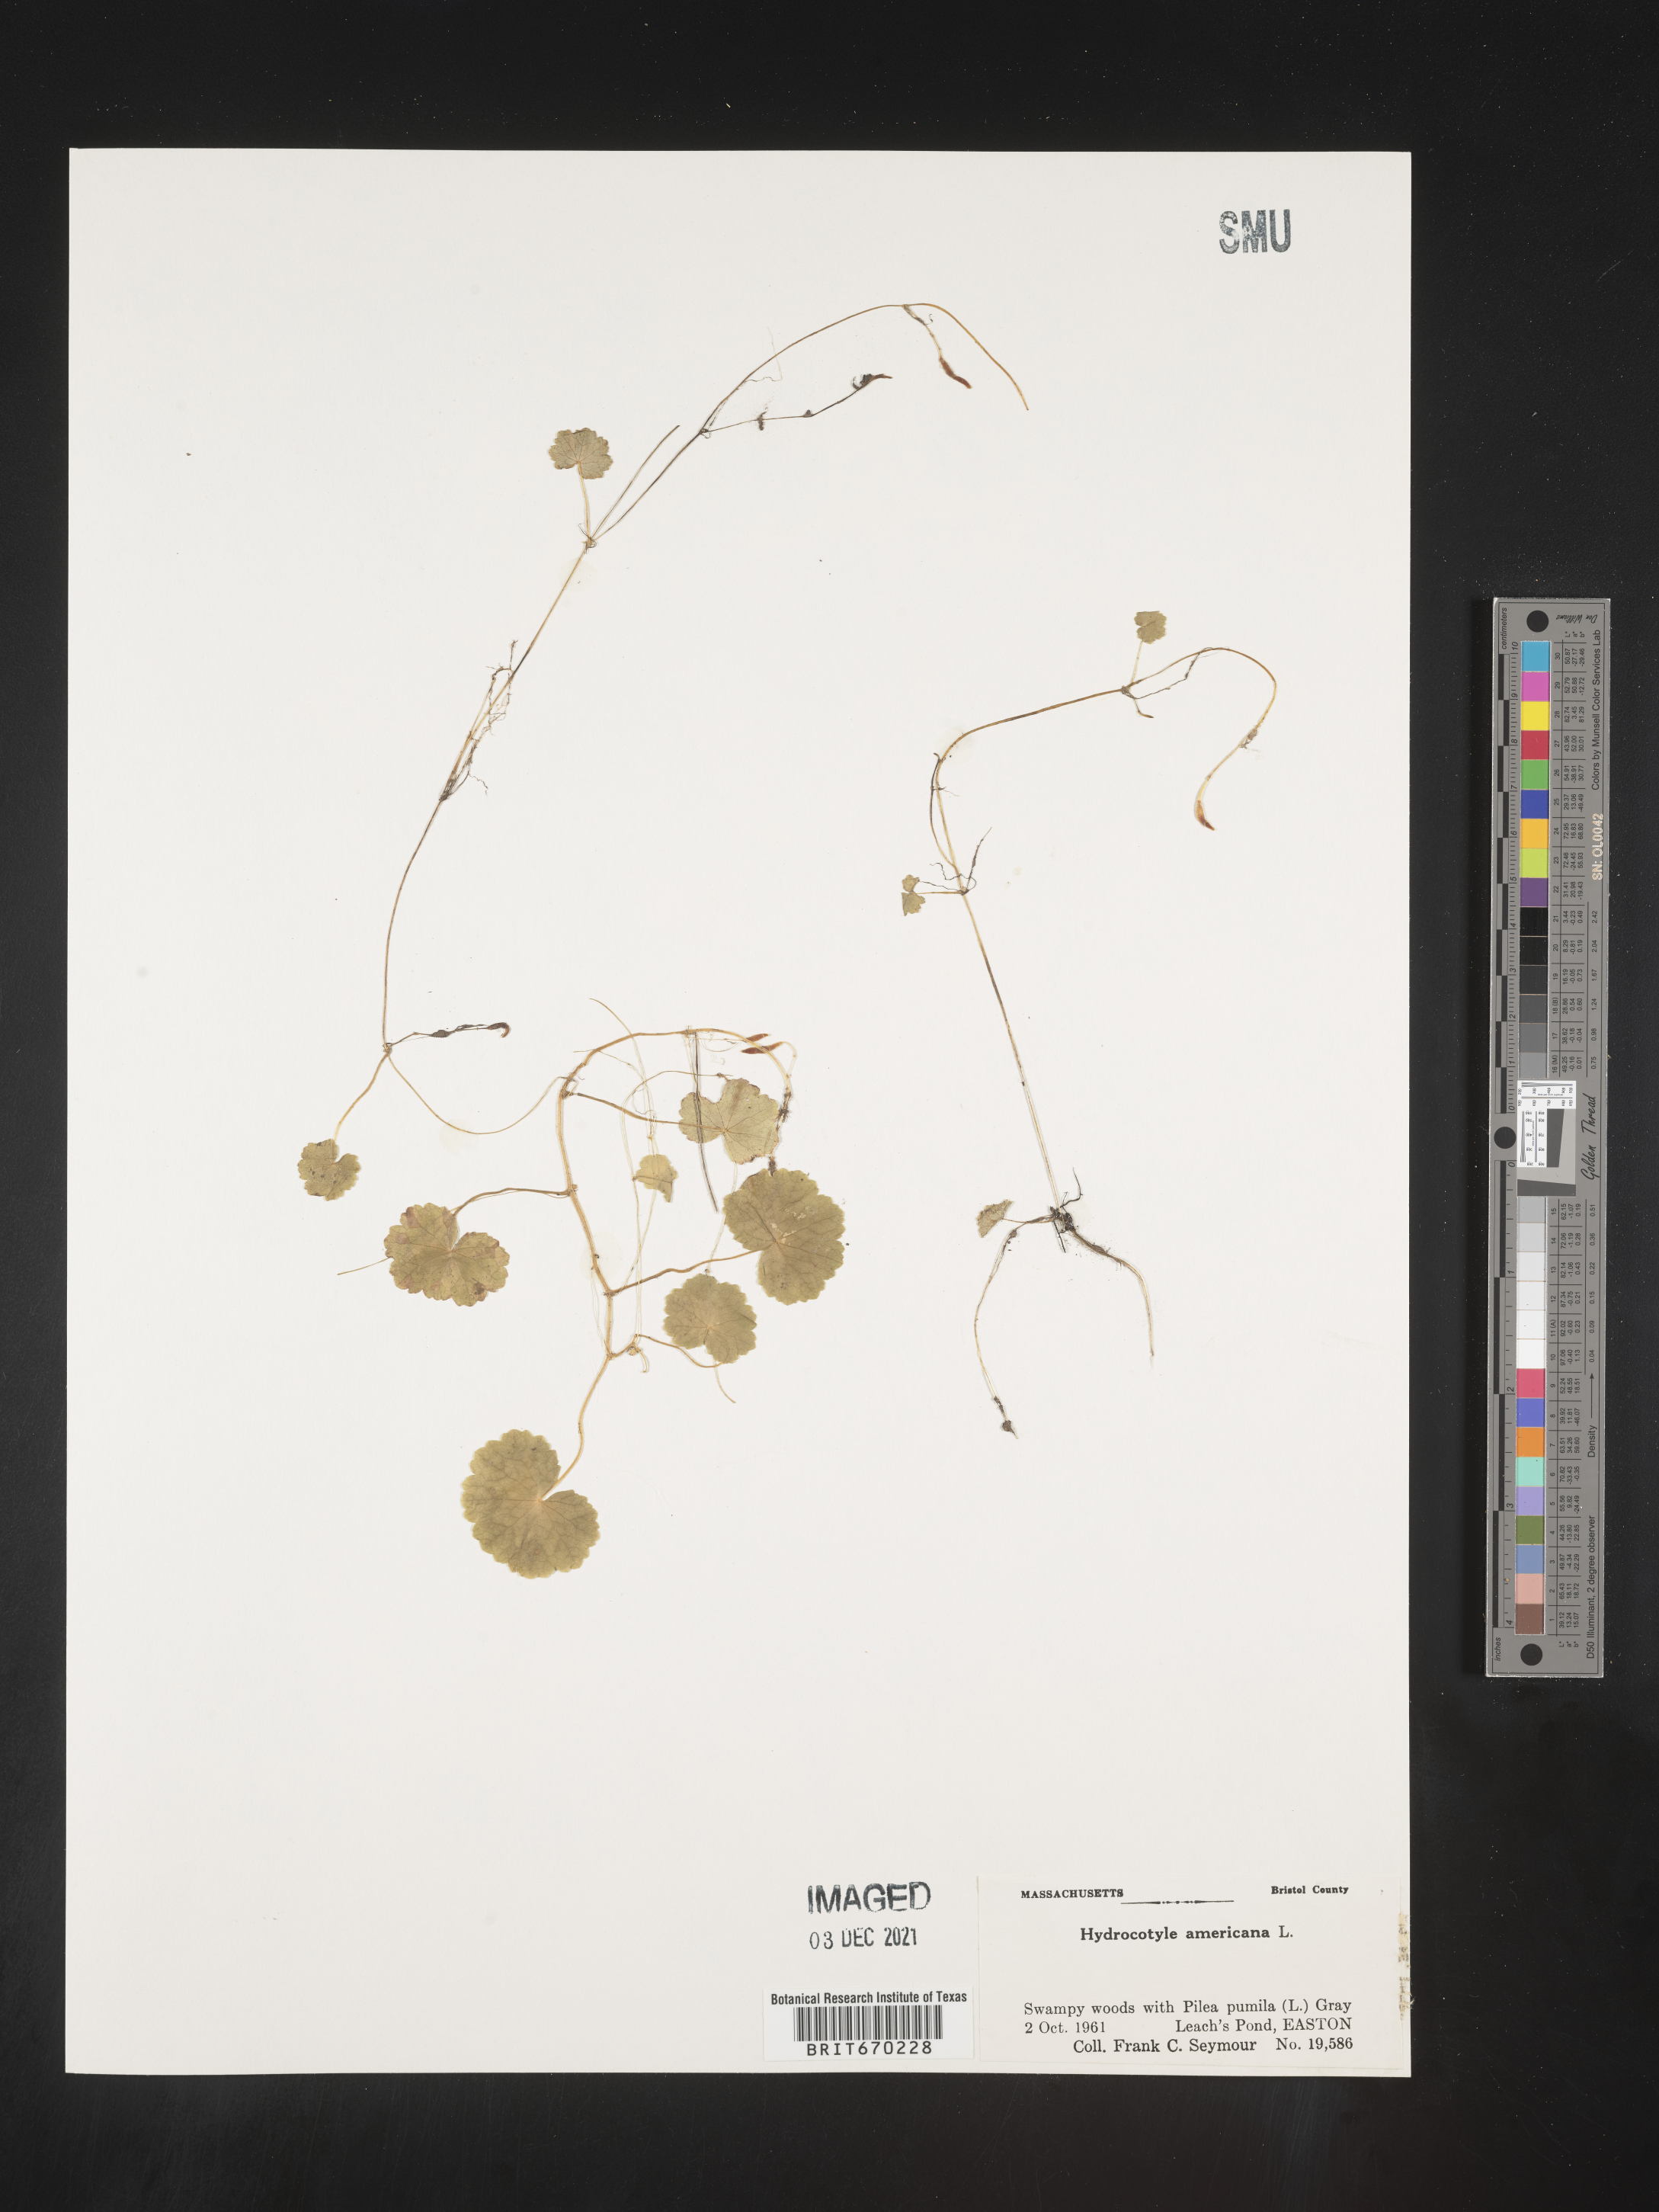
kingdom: Plantae
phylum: Tracheophyta
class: Magnoliopsida
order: Apiales
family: Araliaceae
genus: Hydrocotyle
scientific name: Hydrocotyle
